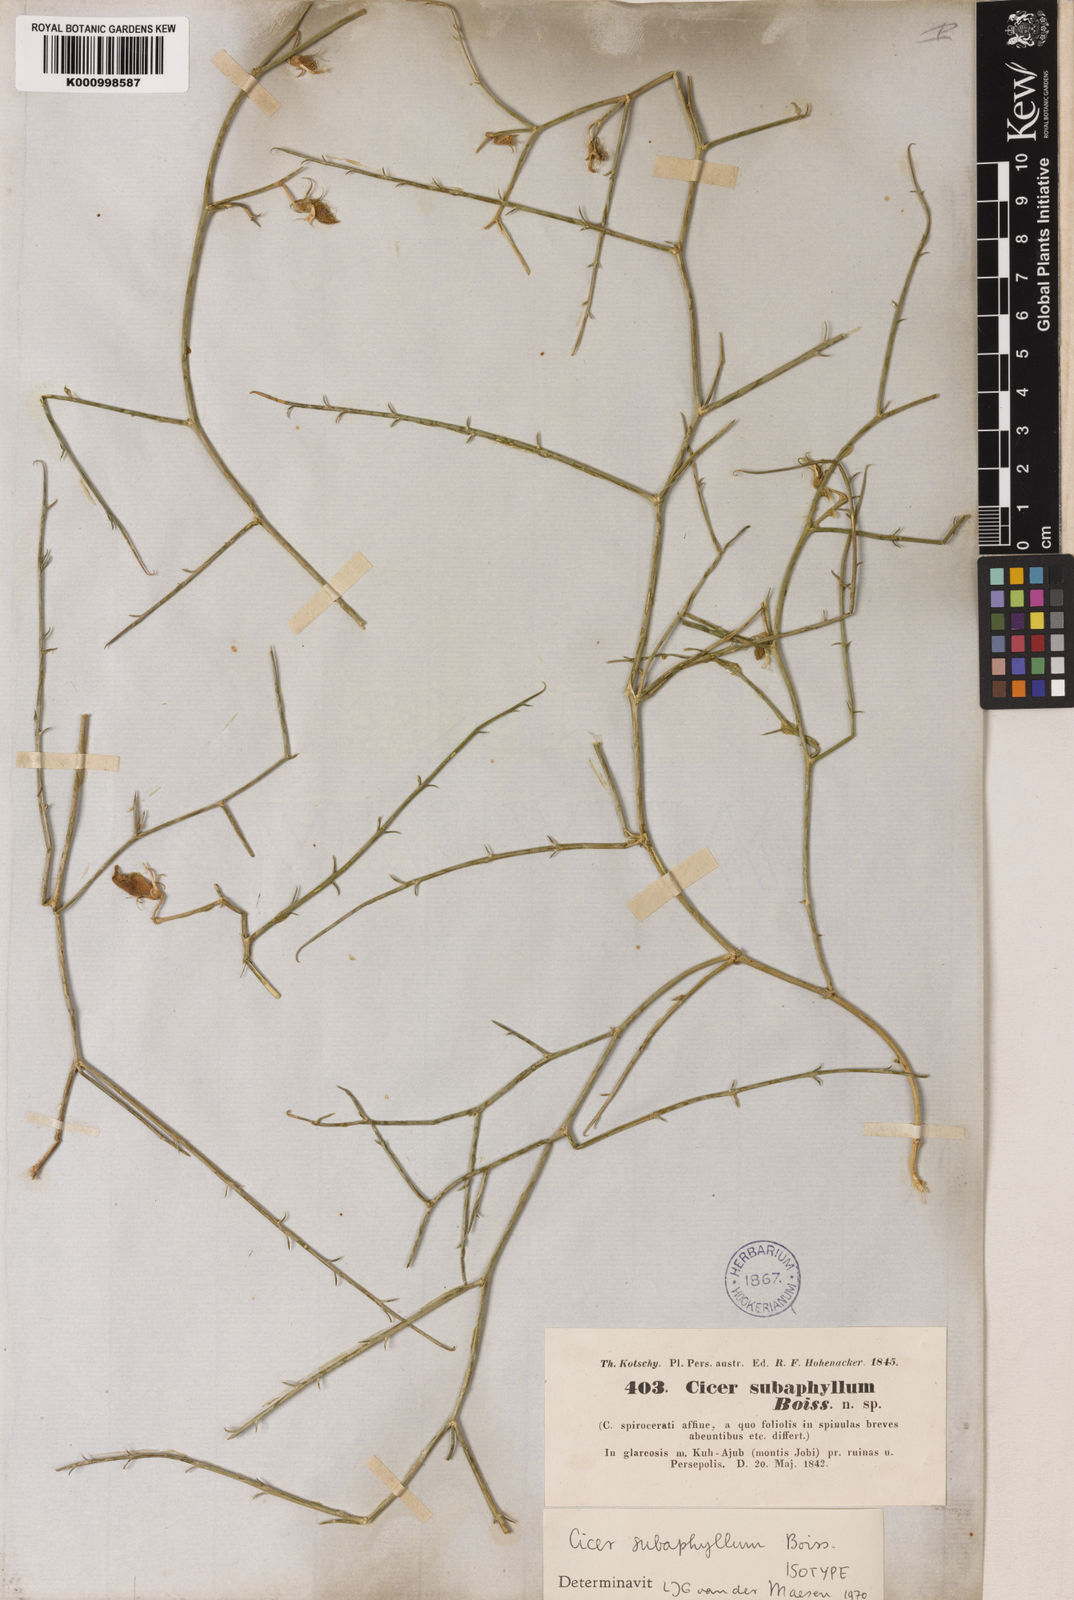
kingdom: Plantae
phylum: Tracheophyta
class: Magnoliopsida
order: Fabales
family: Fabaceae
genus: Cicer
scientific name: Cicer subaphyllum
